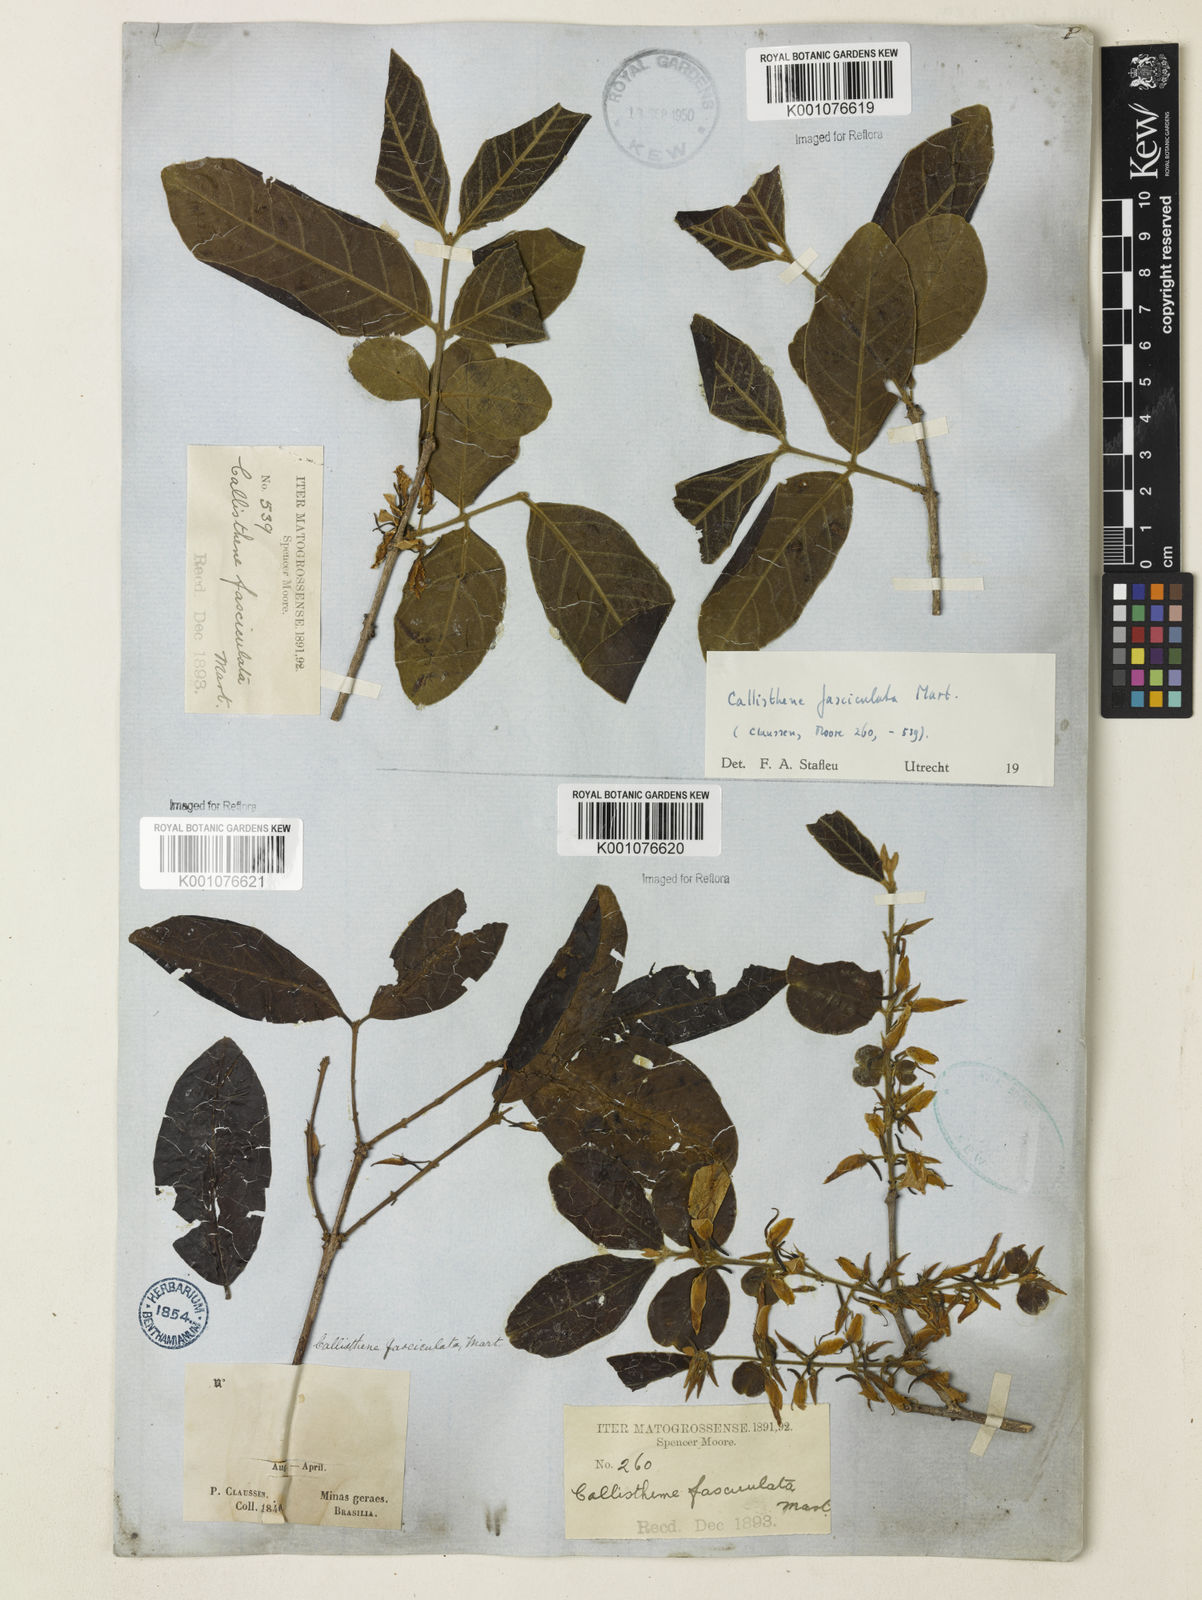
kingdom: Plantae
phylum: Tracheophyta
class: Magnoliopsida
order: Myrtales
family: Vochysiaceae
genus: Callisthene
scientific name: Callisthene fasciculata
